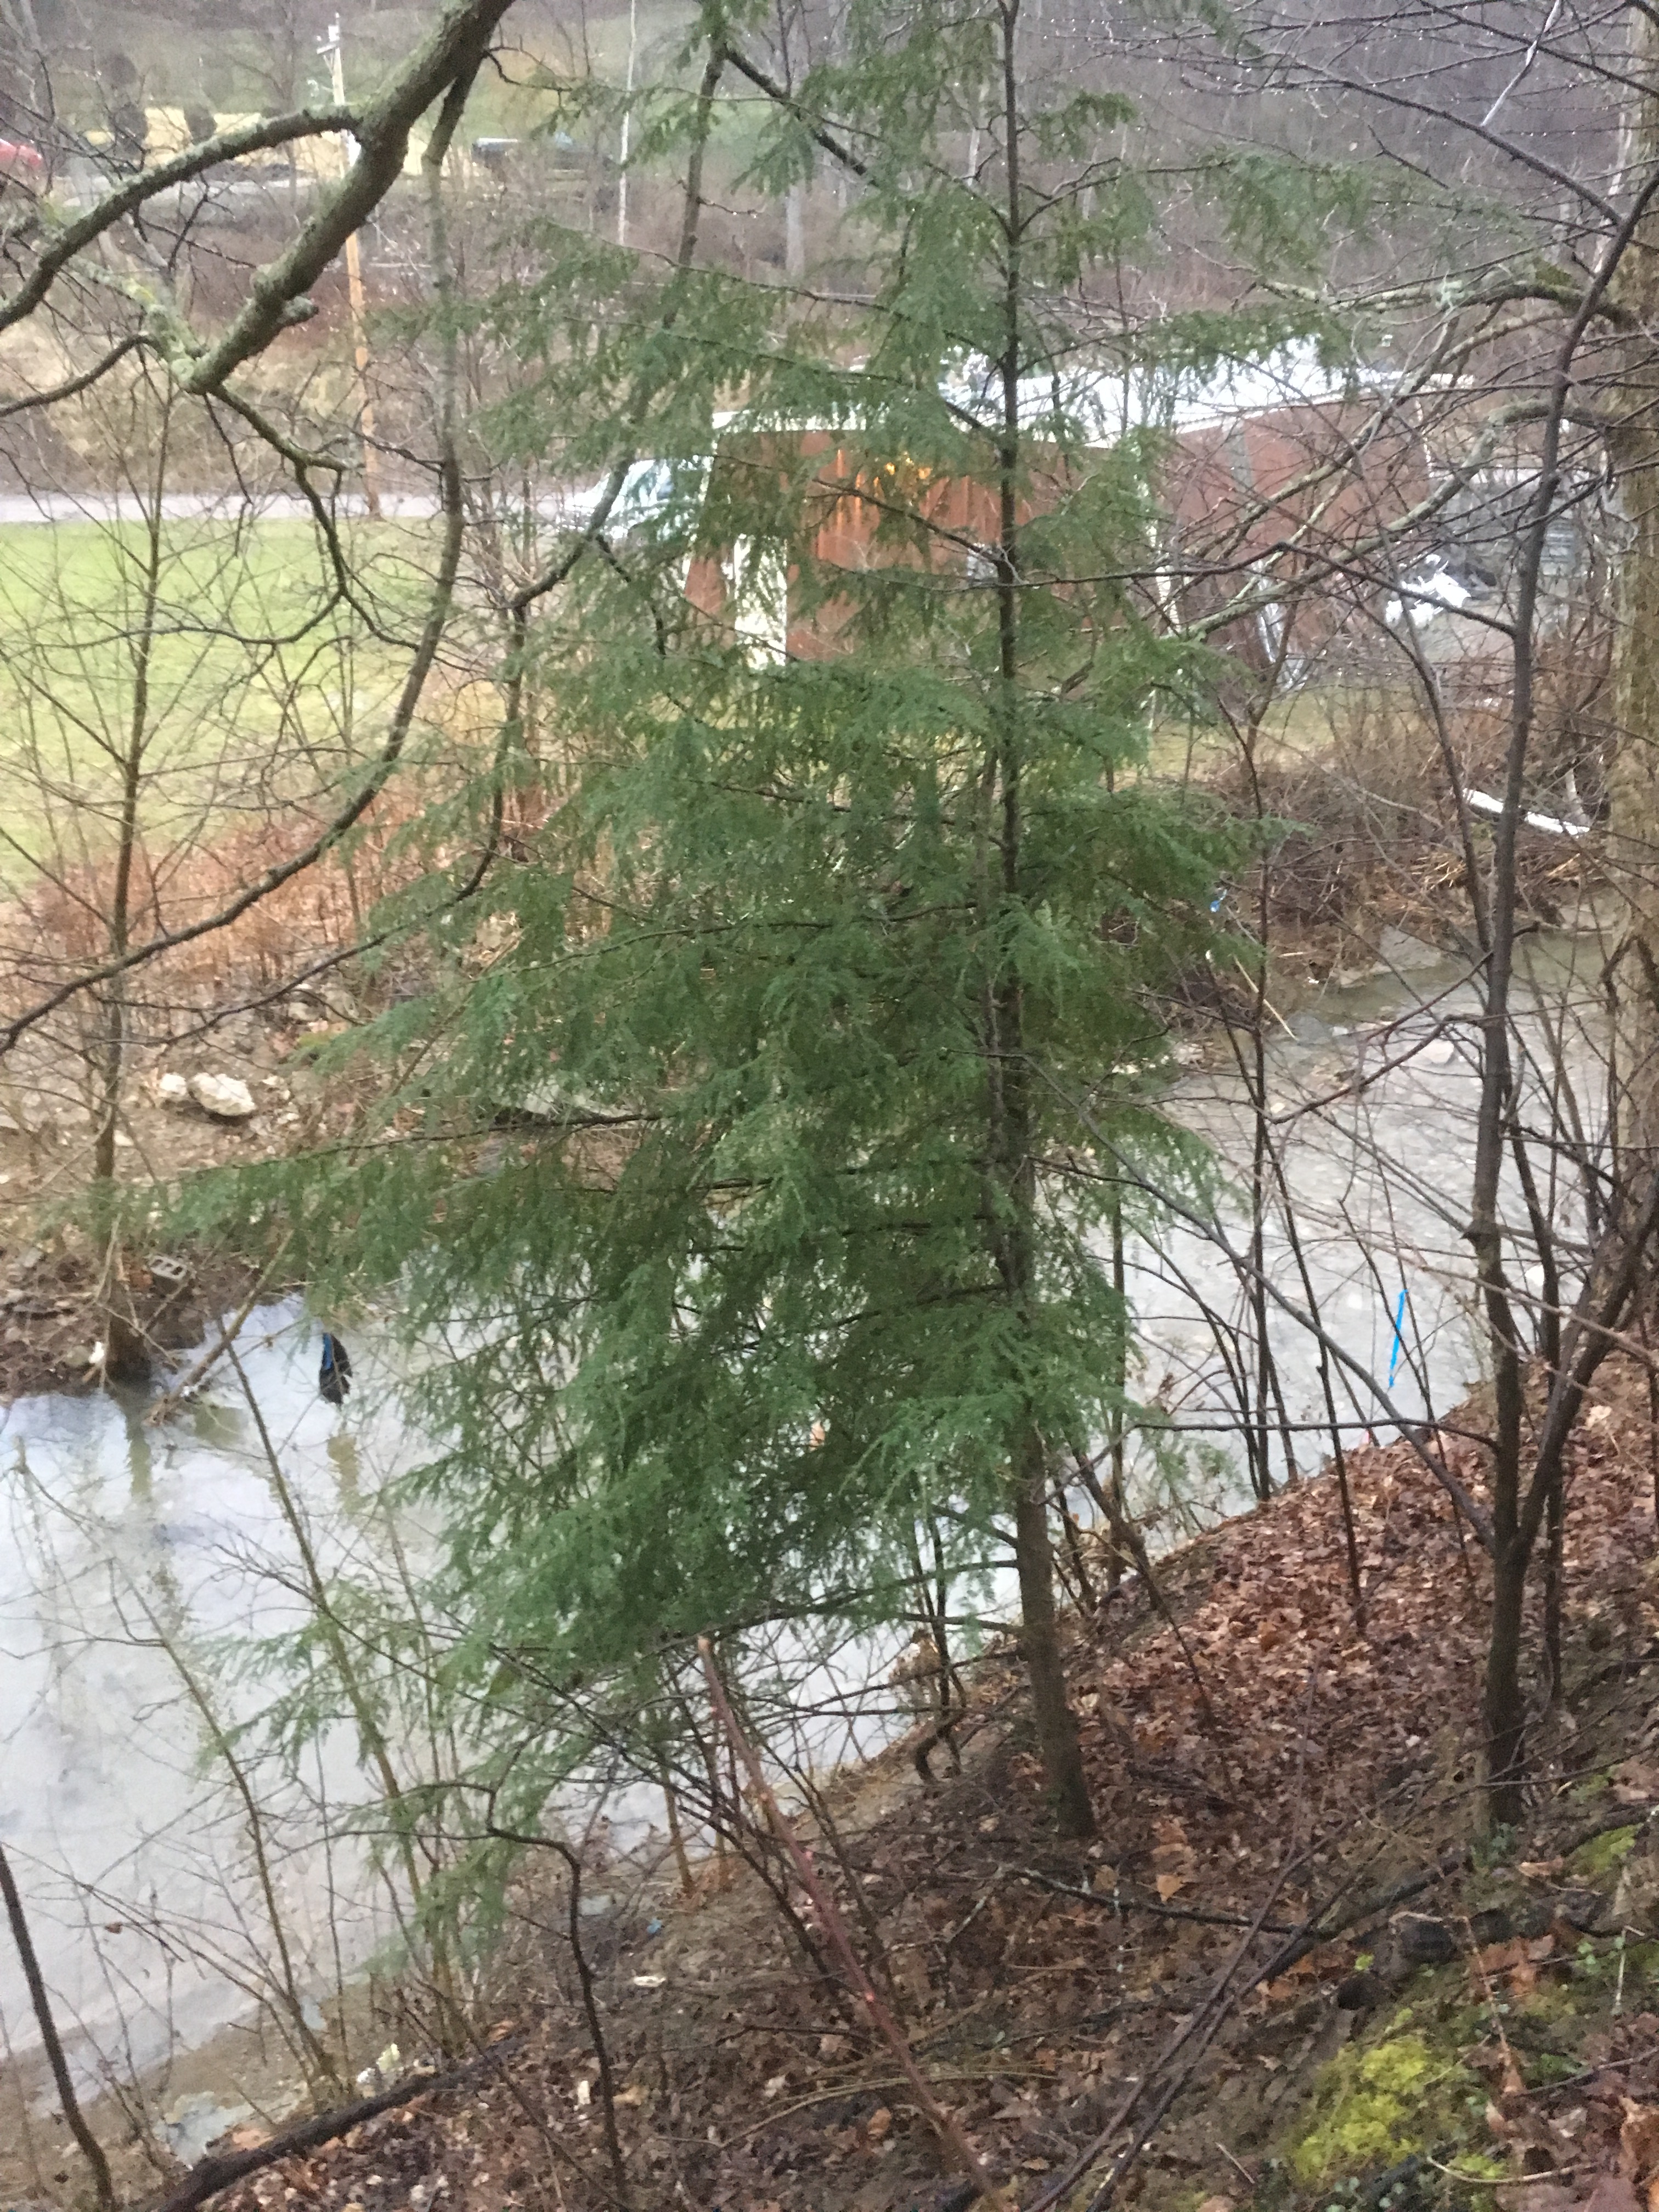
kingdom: Plantae
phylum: Tracheophyta
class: Pinopsida
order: Pinales
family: Pinaceae
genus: Tsuga
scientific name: Tsuga canadensis
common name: Eastern Hemlock
